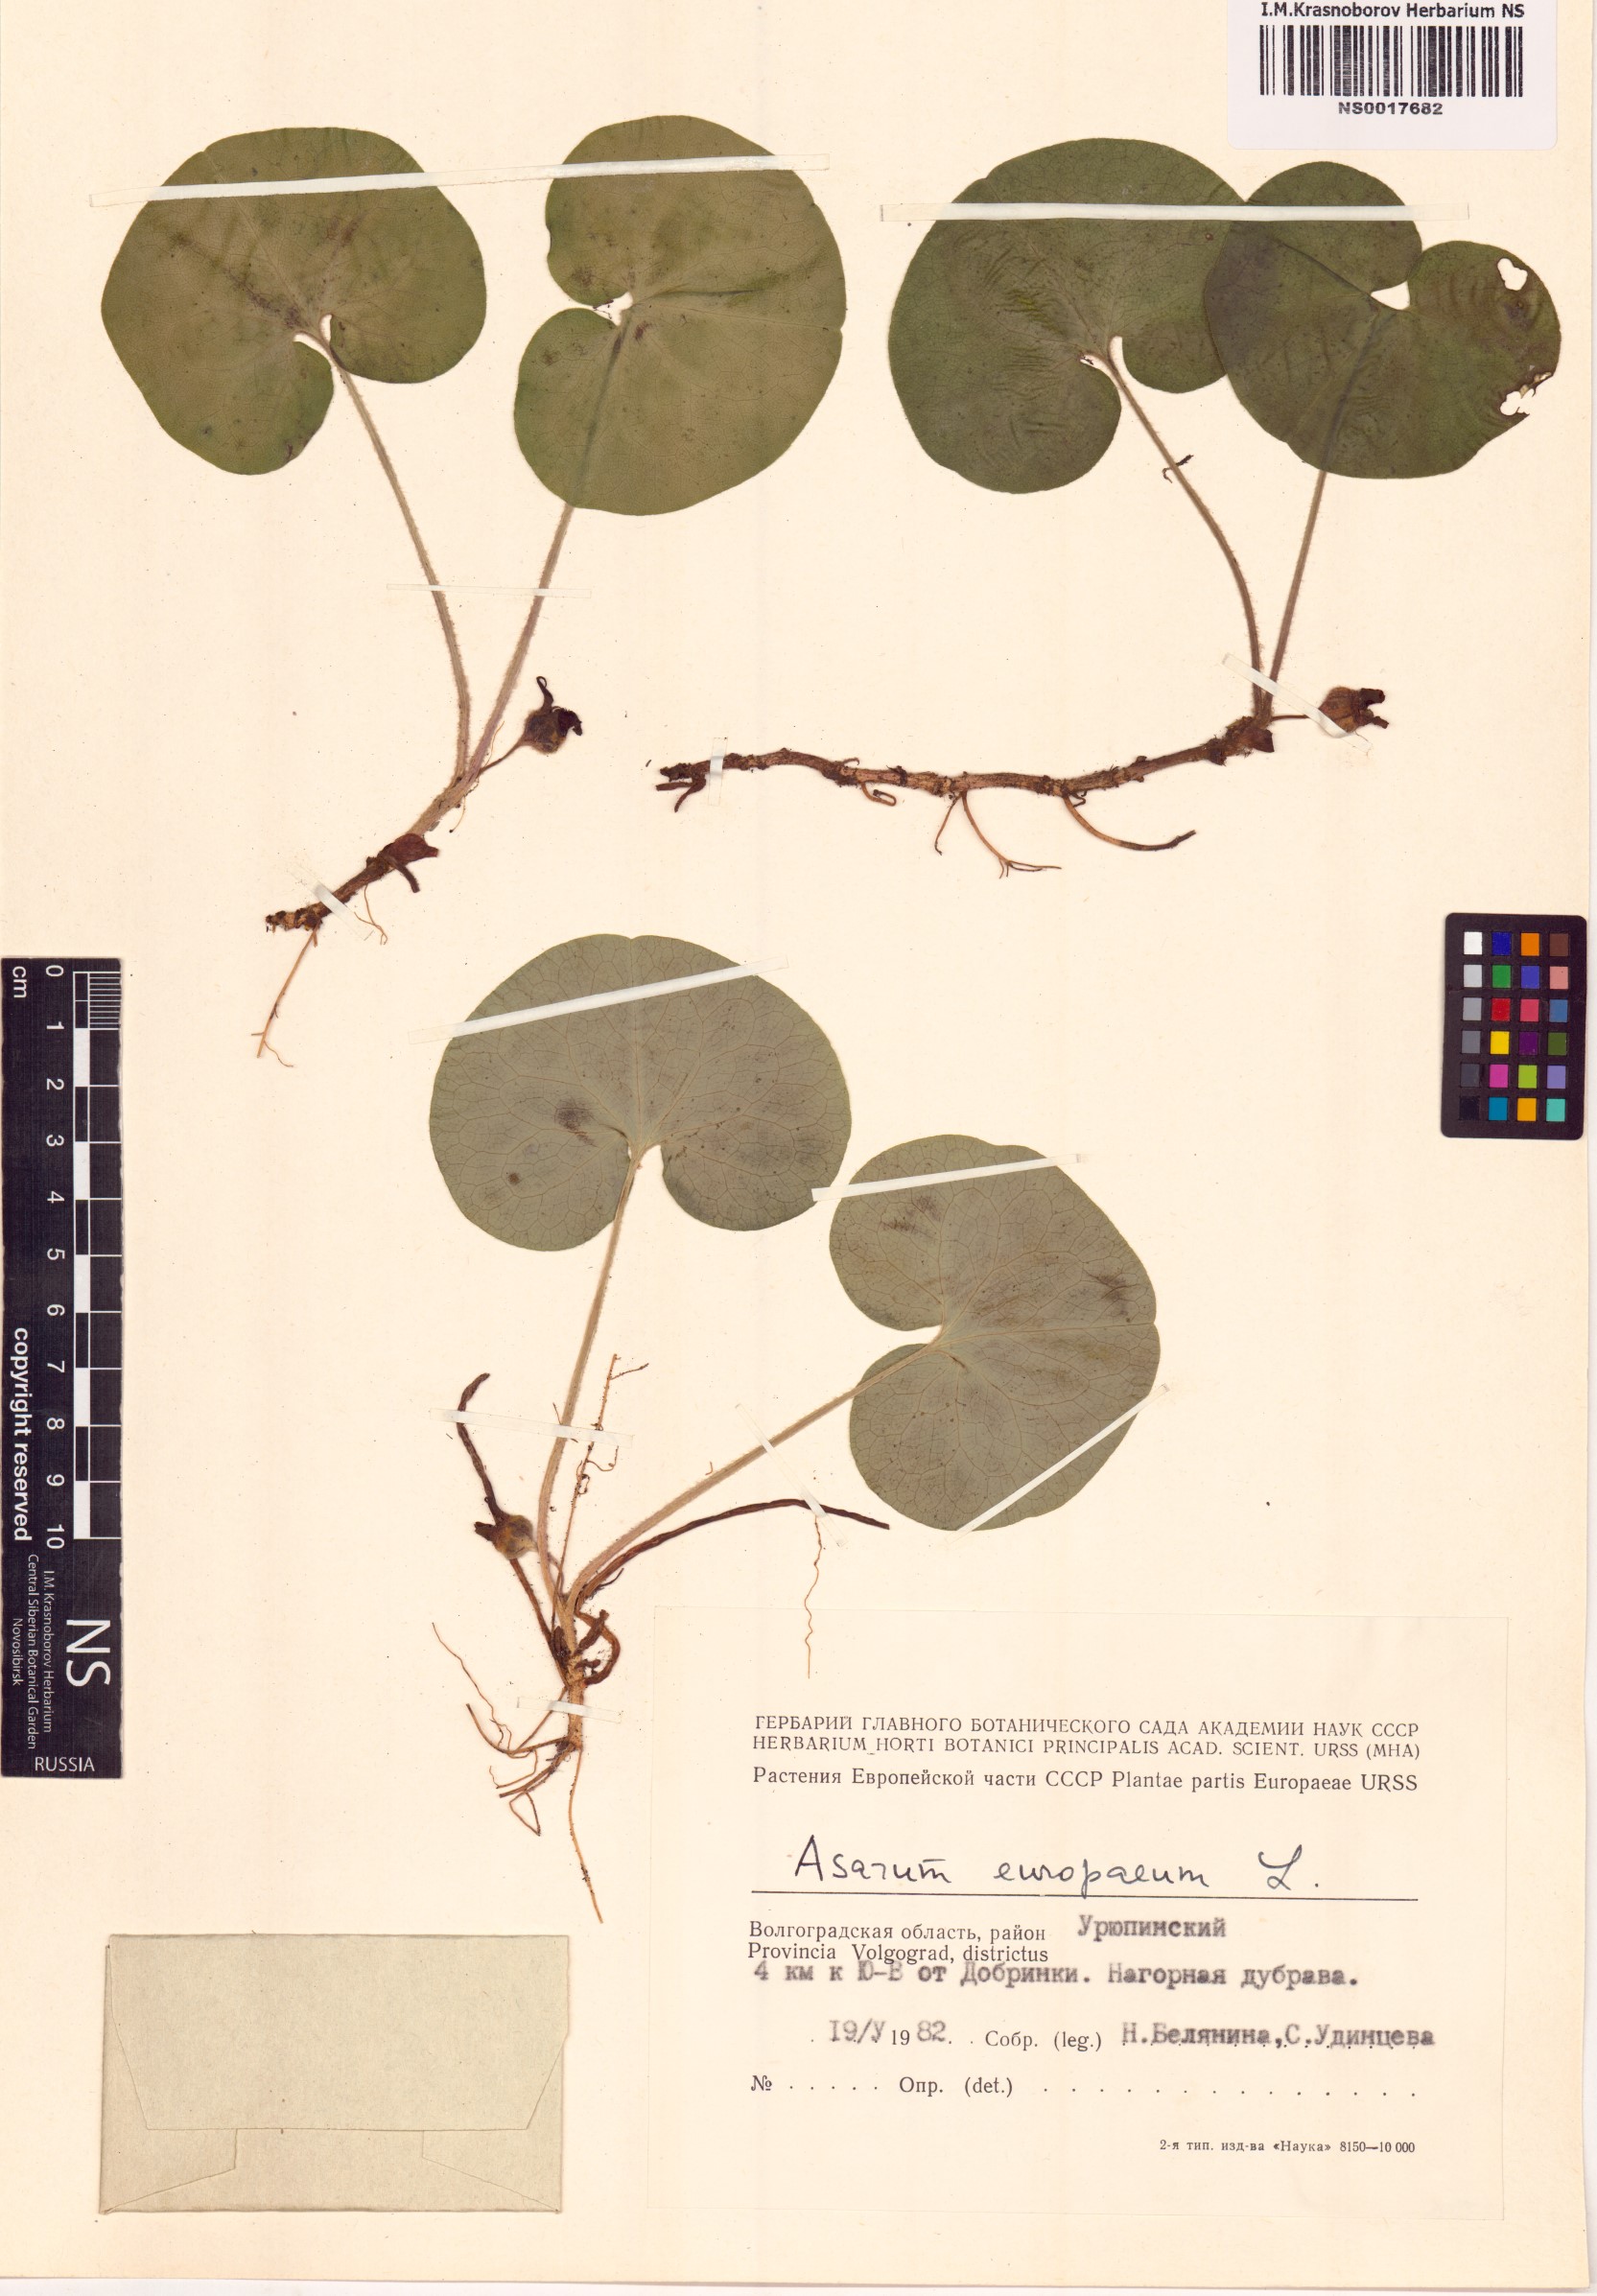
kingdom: Plantae
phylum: Tracheophyta
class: Magnoliopsida
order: Piperales
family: Aristolochiaceae
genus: Asarum
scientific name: Asarum europaeum
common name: Asarabacca
